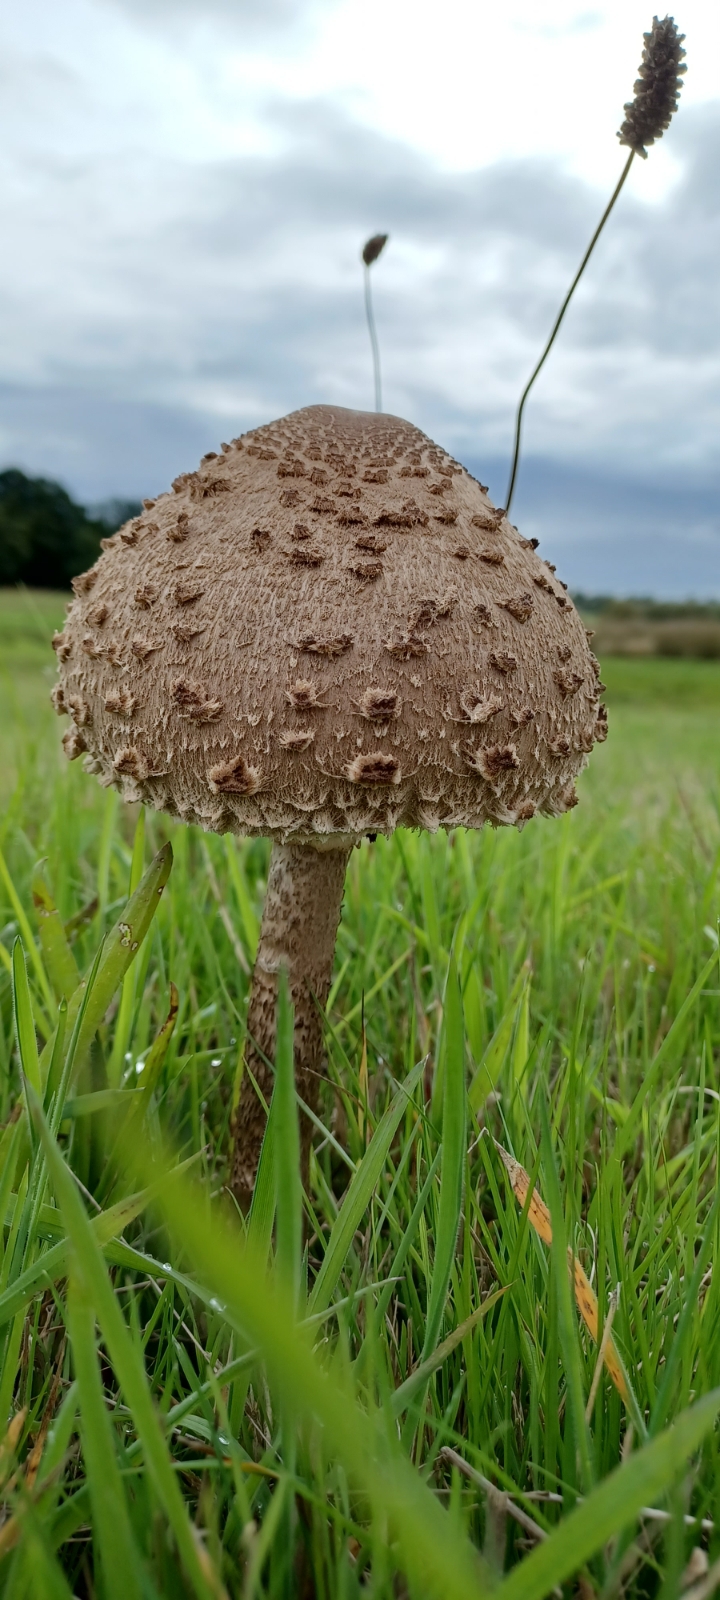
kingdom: Fungi
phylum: Basidiomycota
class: Agaricomycetes
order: Agaricales
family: Agaricaceae
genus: Macrolepiota
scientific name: Macrolepiota procera
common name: stor kæmpeparasolhat
